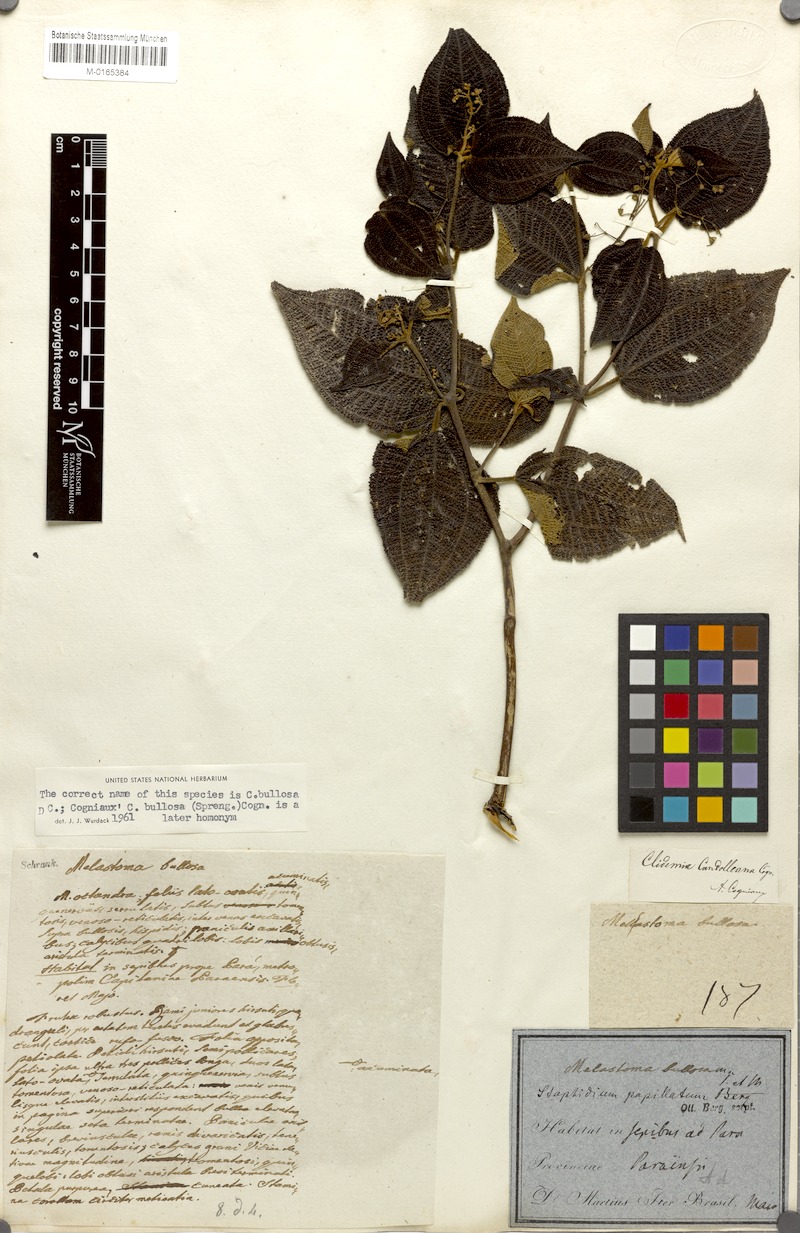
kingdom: Plantae
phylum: Tracheophyta
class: Magnoliopsida
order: Myrtales
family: Melastomataceae
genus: Miconia
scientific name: Miconia bullosa
